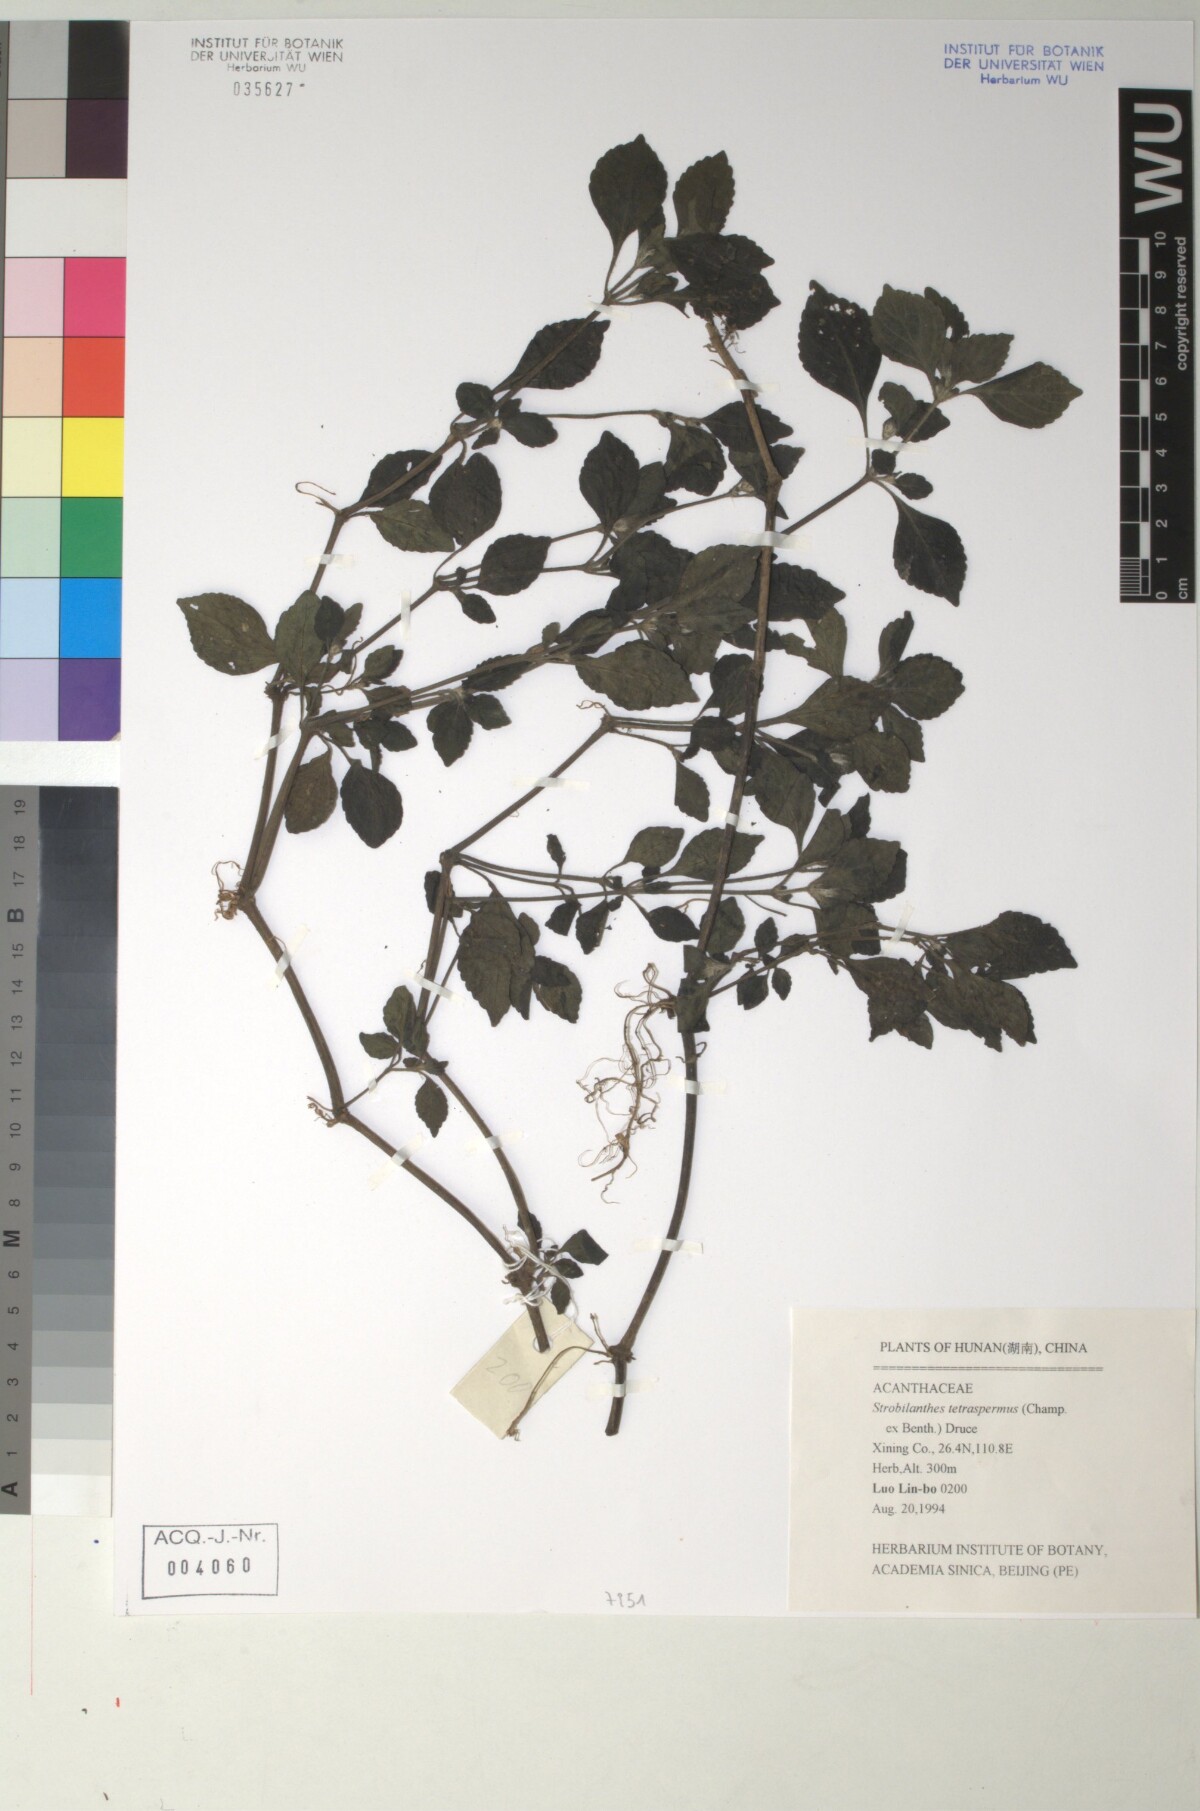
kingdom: Plantae
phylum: Tracheophyta
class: Magnoliopsida
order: Lamiales
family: Acanthaceae
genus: Strobilanthes
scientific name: Strobilanthes tetrasperma
